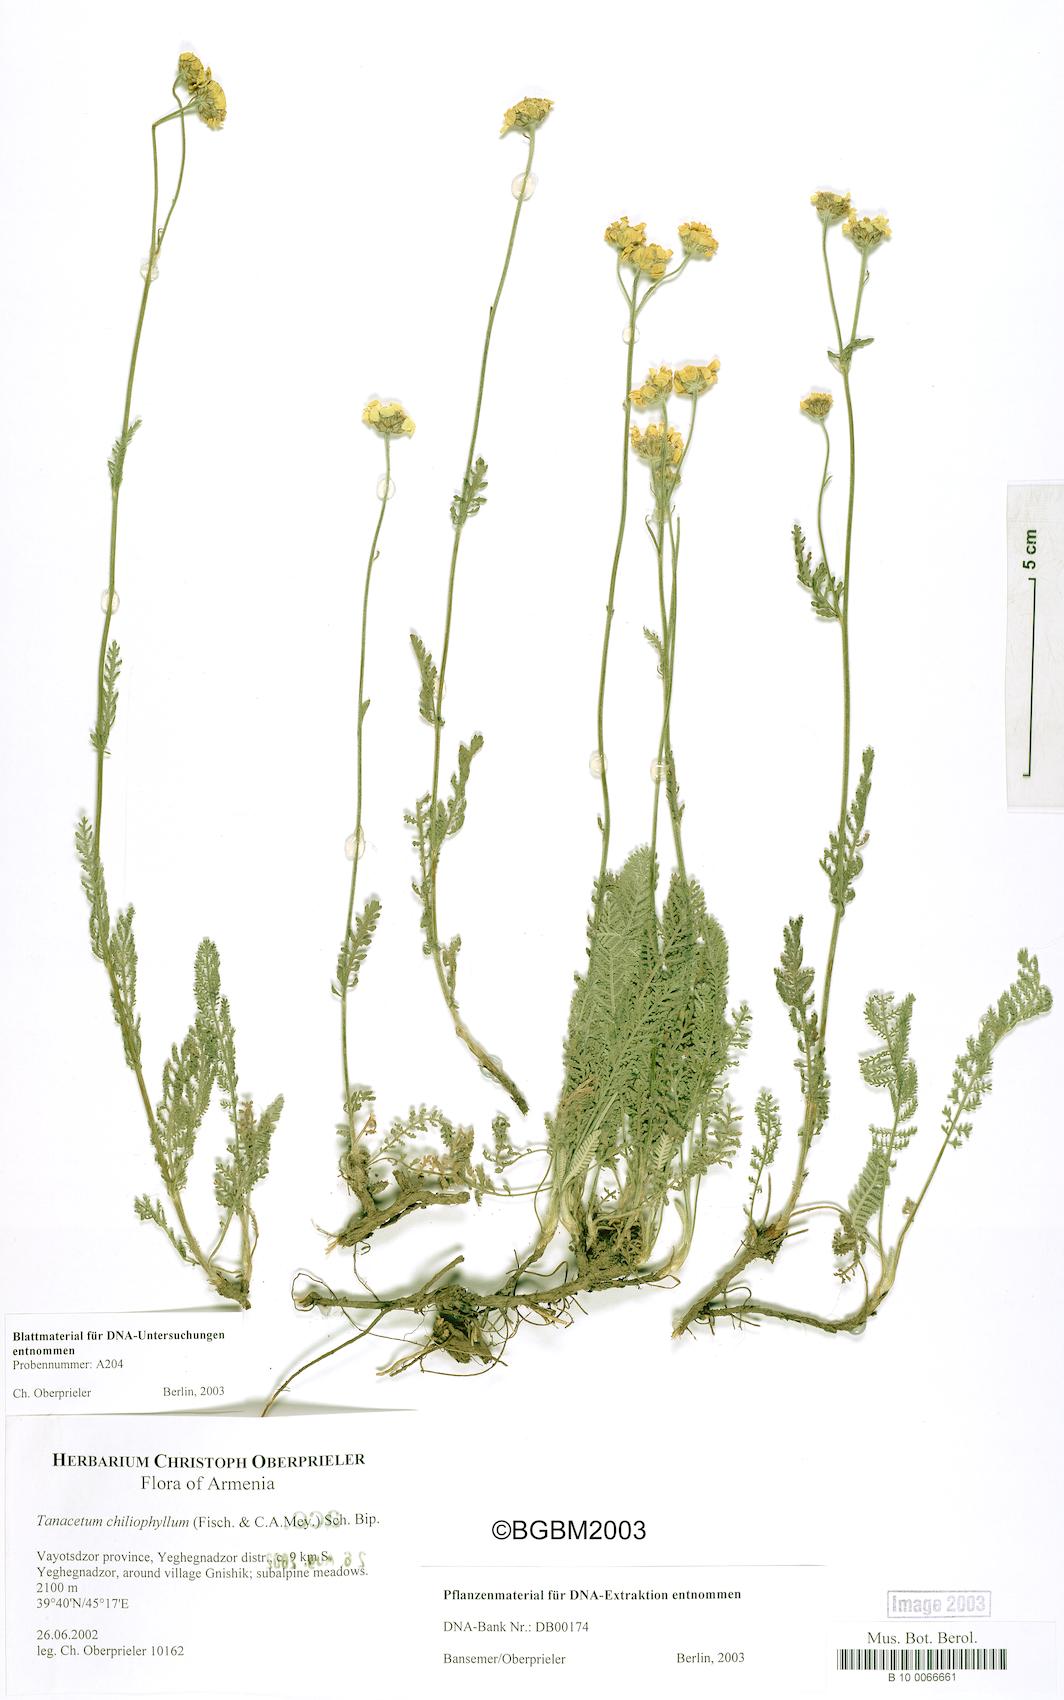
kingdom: Plantae
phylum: Tracheophyta
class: Magnoliopsida
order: Asterales
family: Asteraceae
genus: Tanacetum
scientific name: Tanacetum aureum
